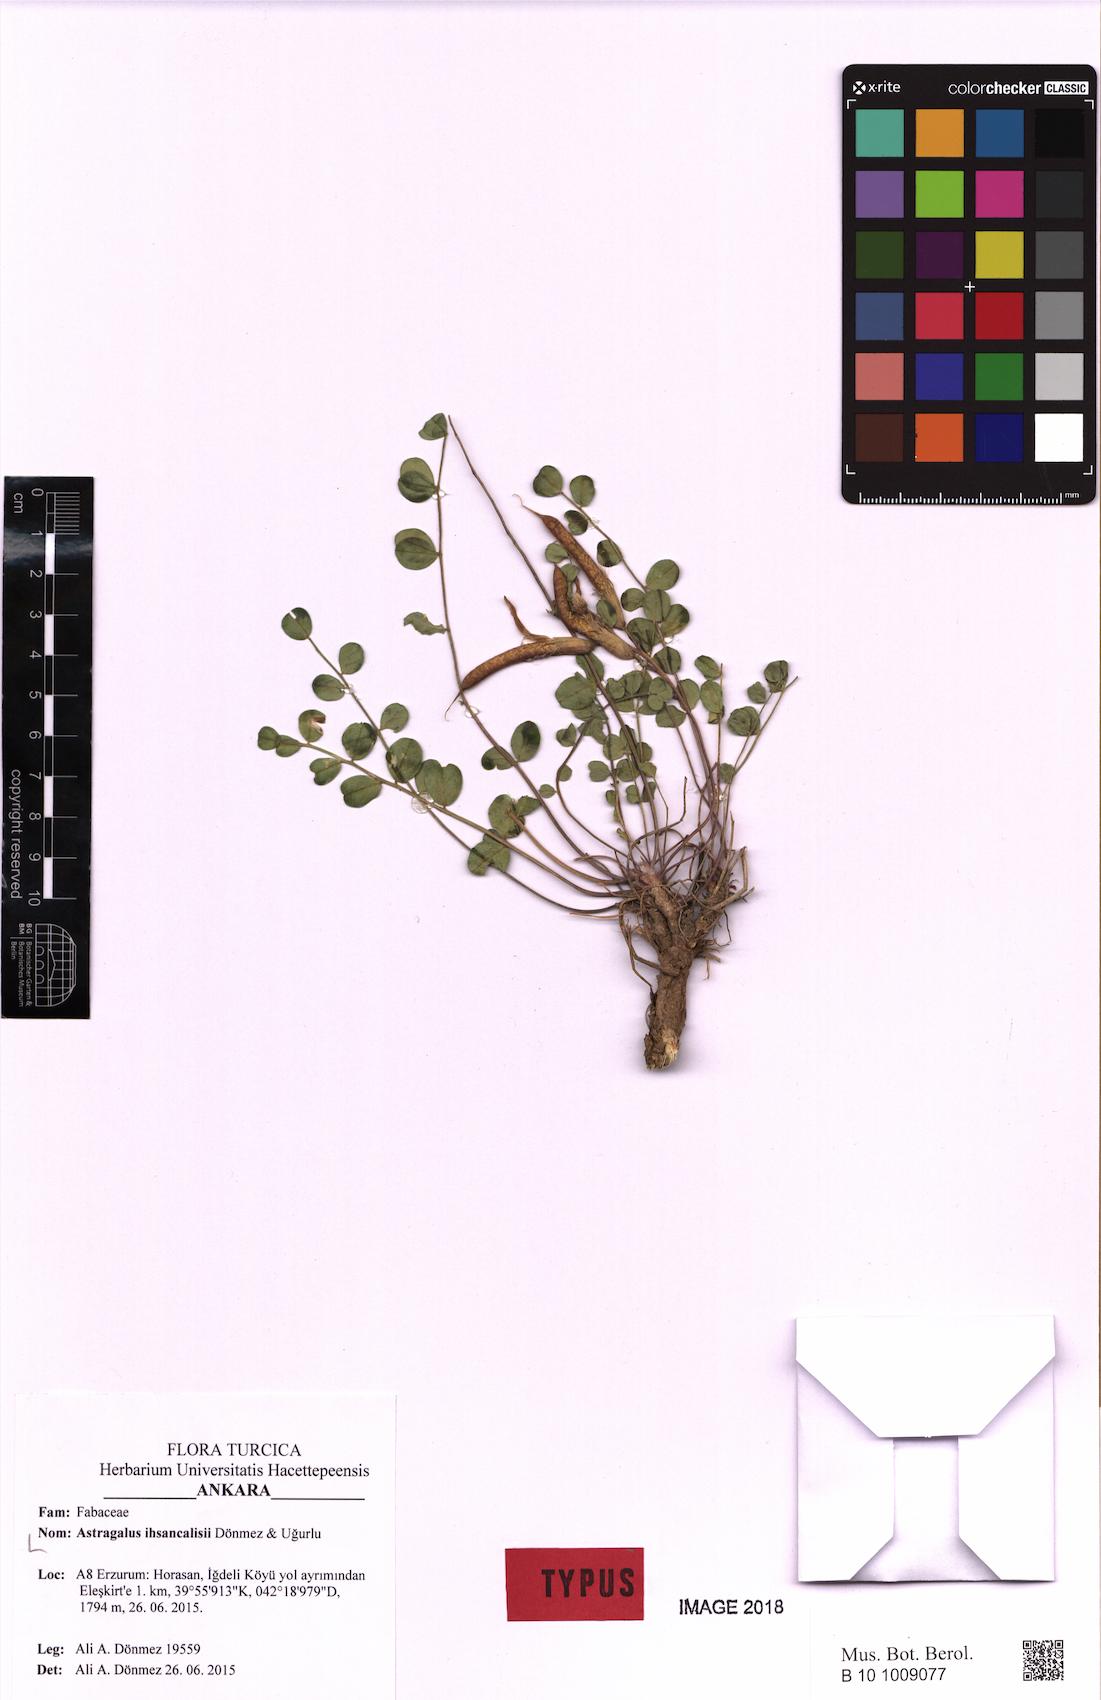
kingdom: Plantae
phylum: Tracheophyta
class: Magnoliopsida
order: Fabales
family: Fabaceae
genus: Astragalus
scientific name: Astragalus ihsancalisii
